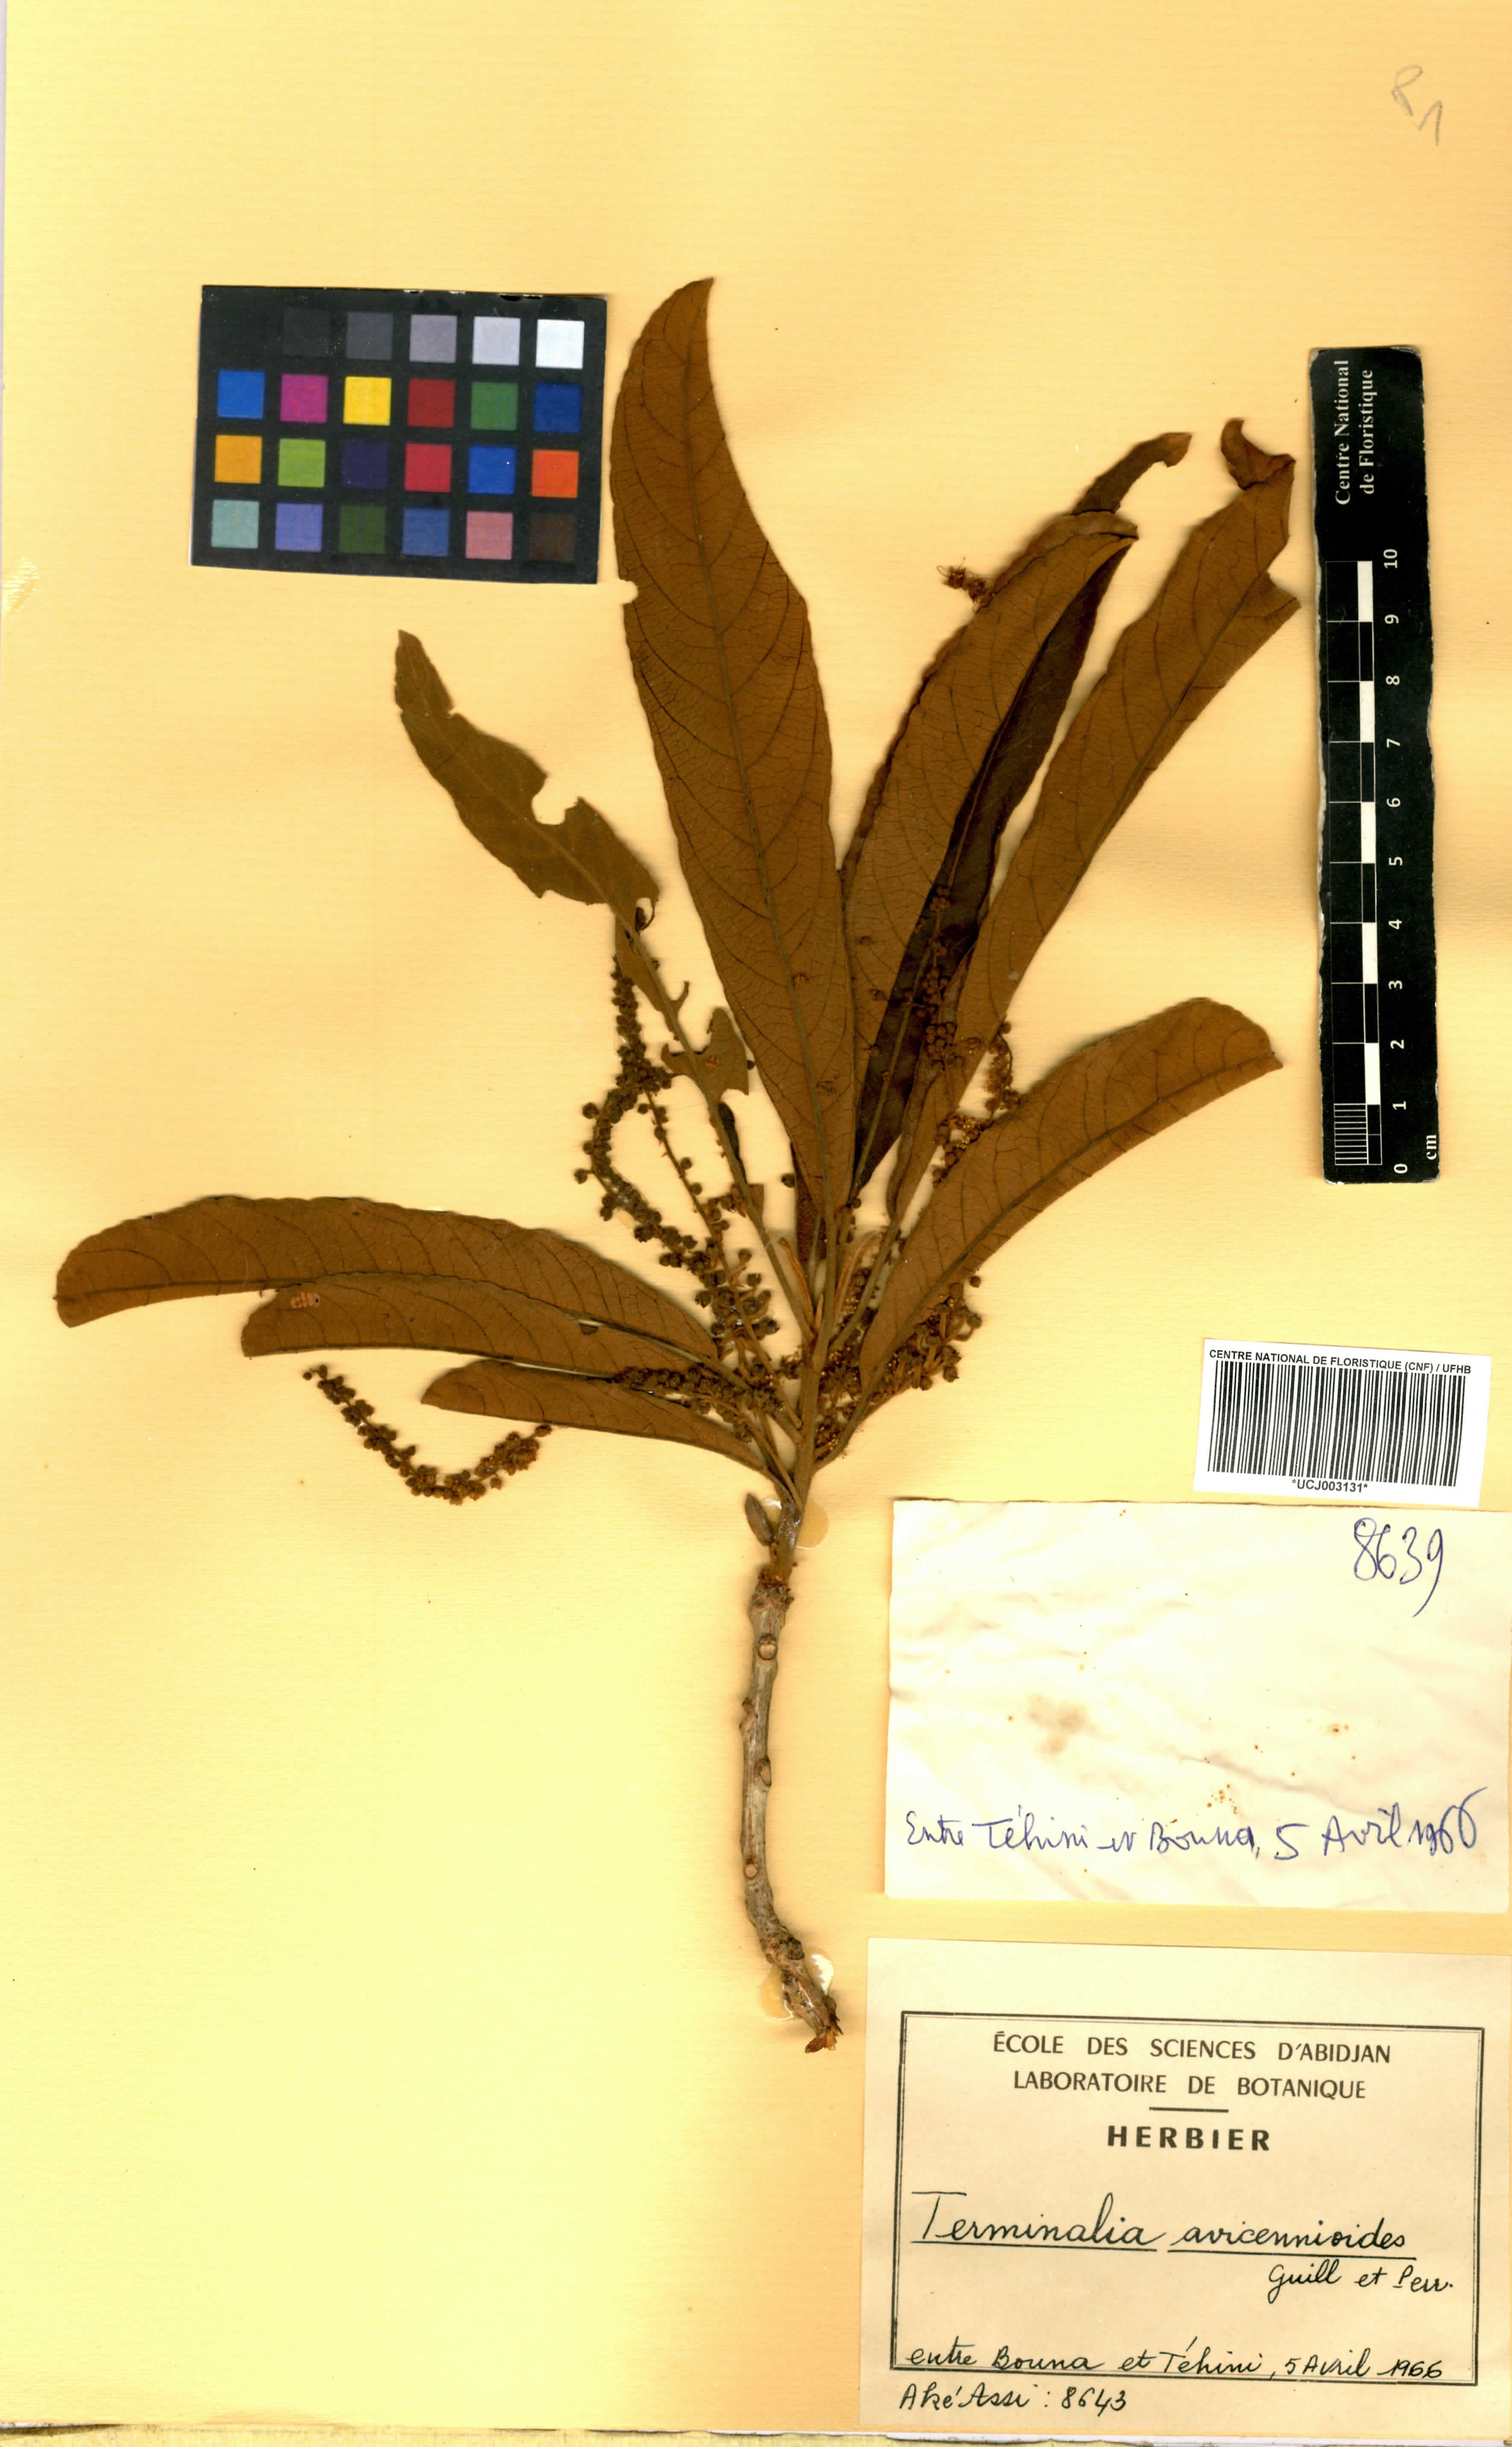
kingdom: Plantae
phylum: Tracheophyta
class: Magnoliopsida
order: Myrtales
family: Combretaceae
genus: Terminalia
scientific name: Terminalia avicennioides
